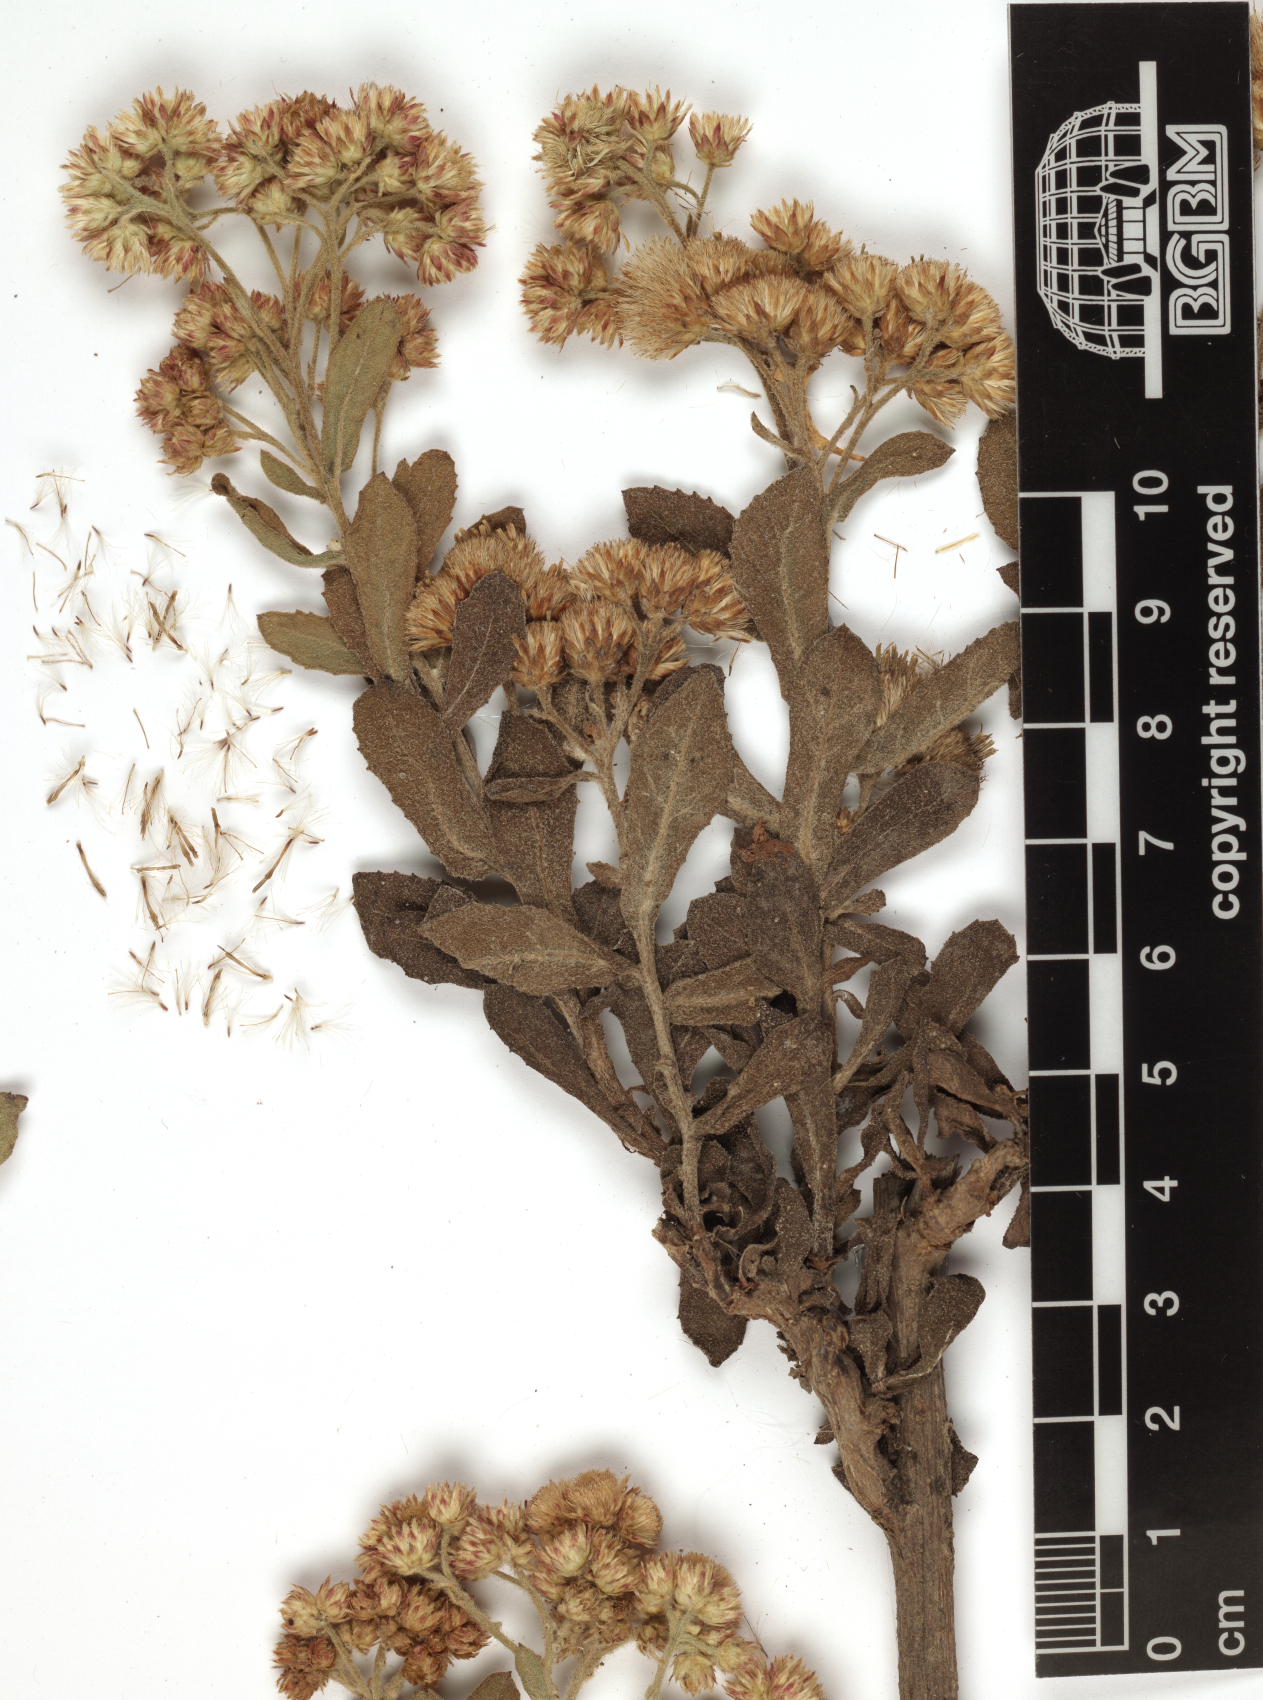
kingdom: Plantae
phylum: Tracheophyta
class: Magnoliopsida
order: Asterales
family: Asteraceae
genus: Pluchea
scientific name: Pluchea ovalis
